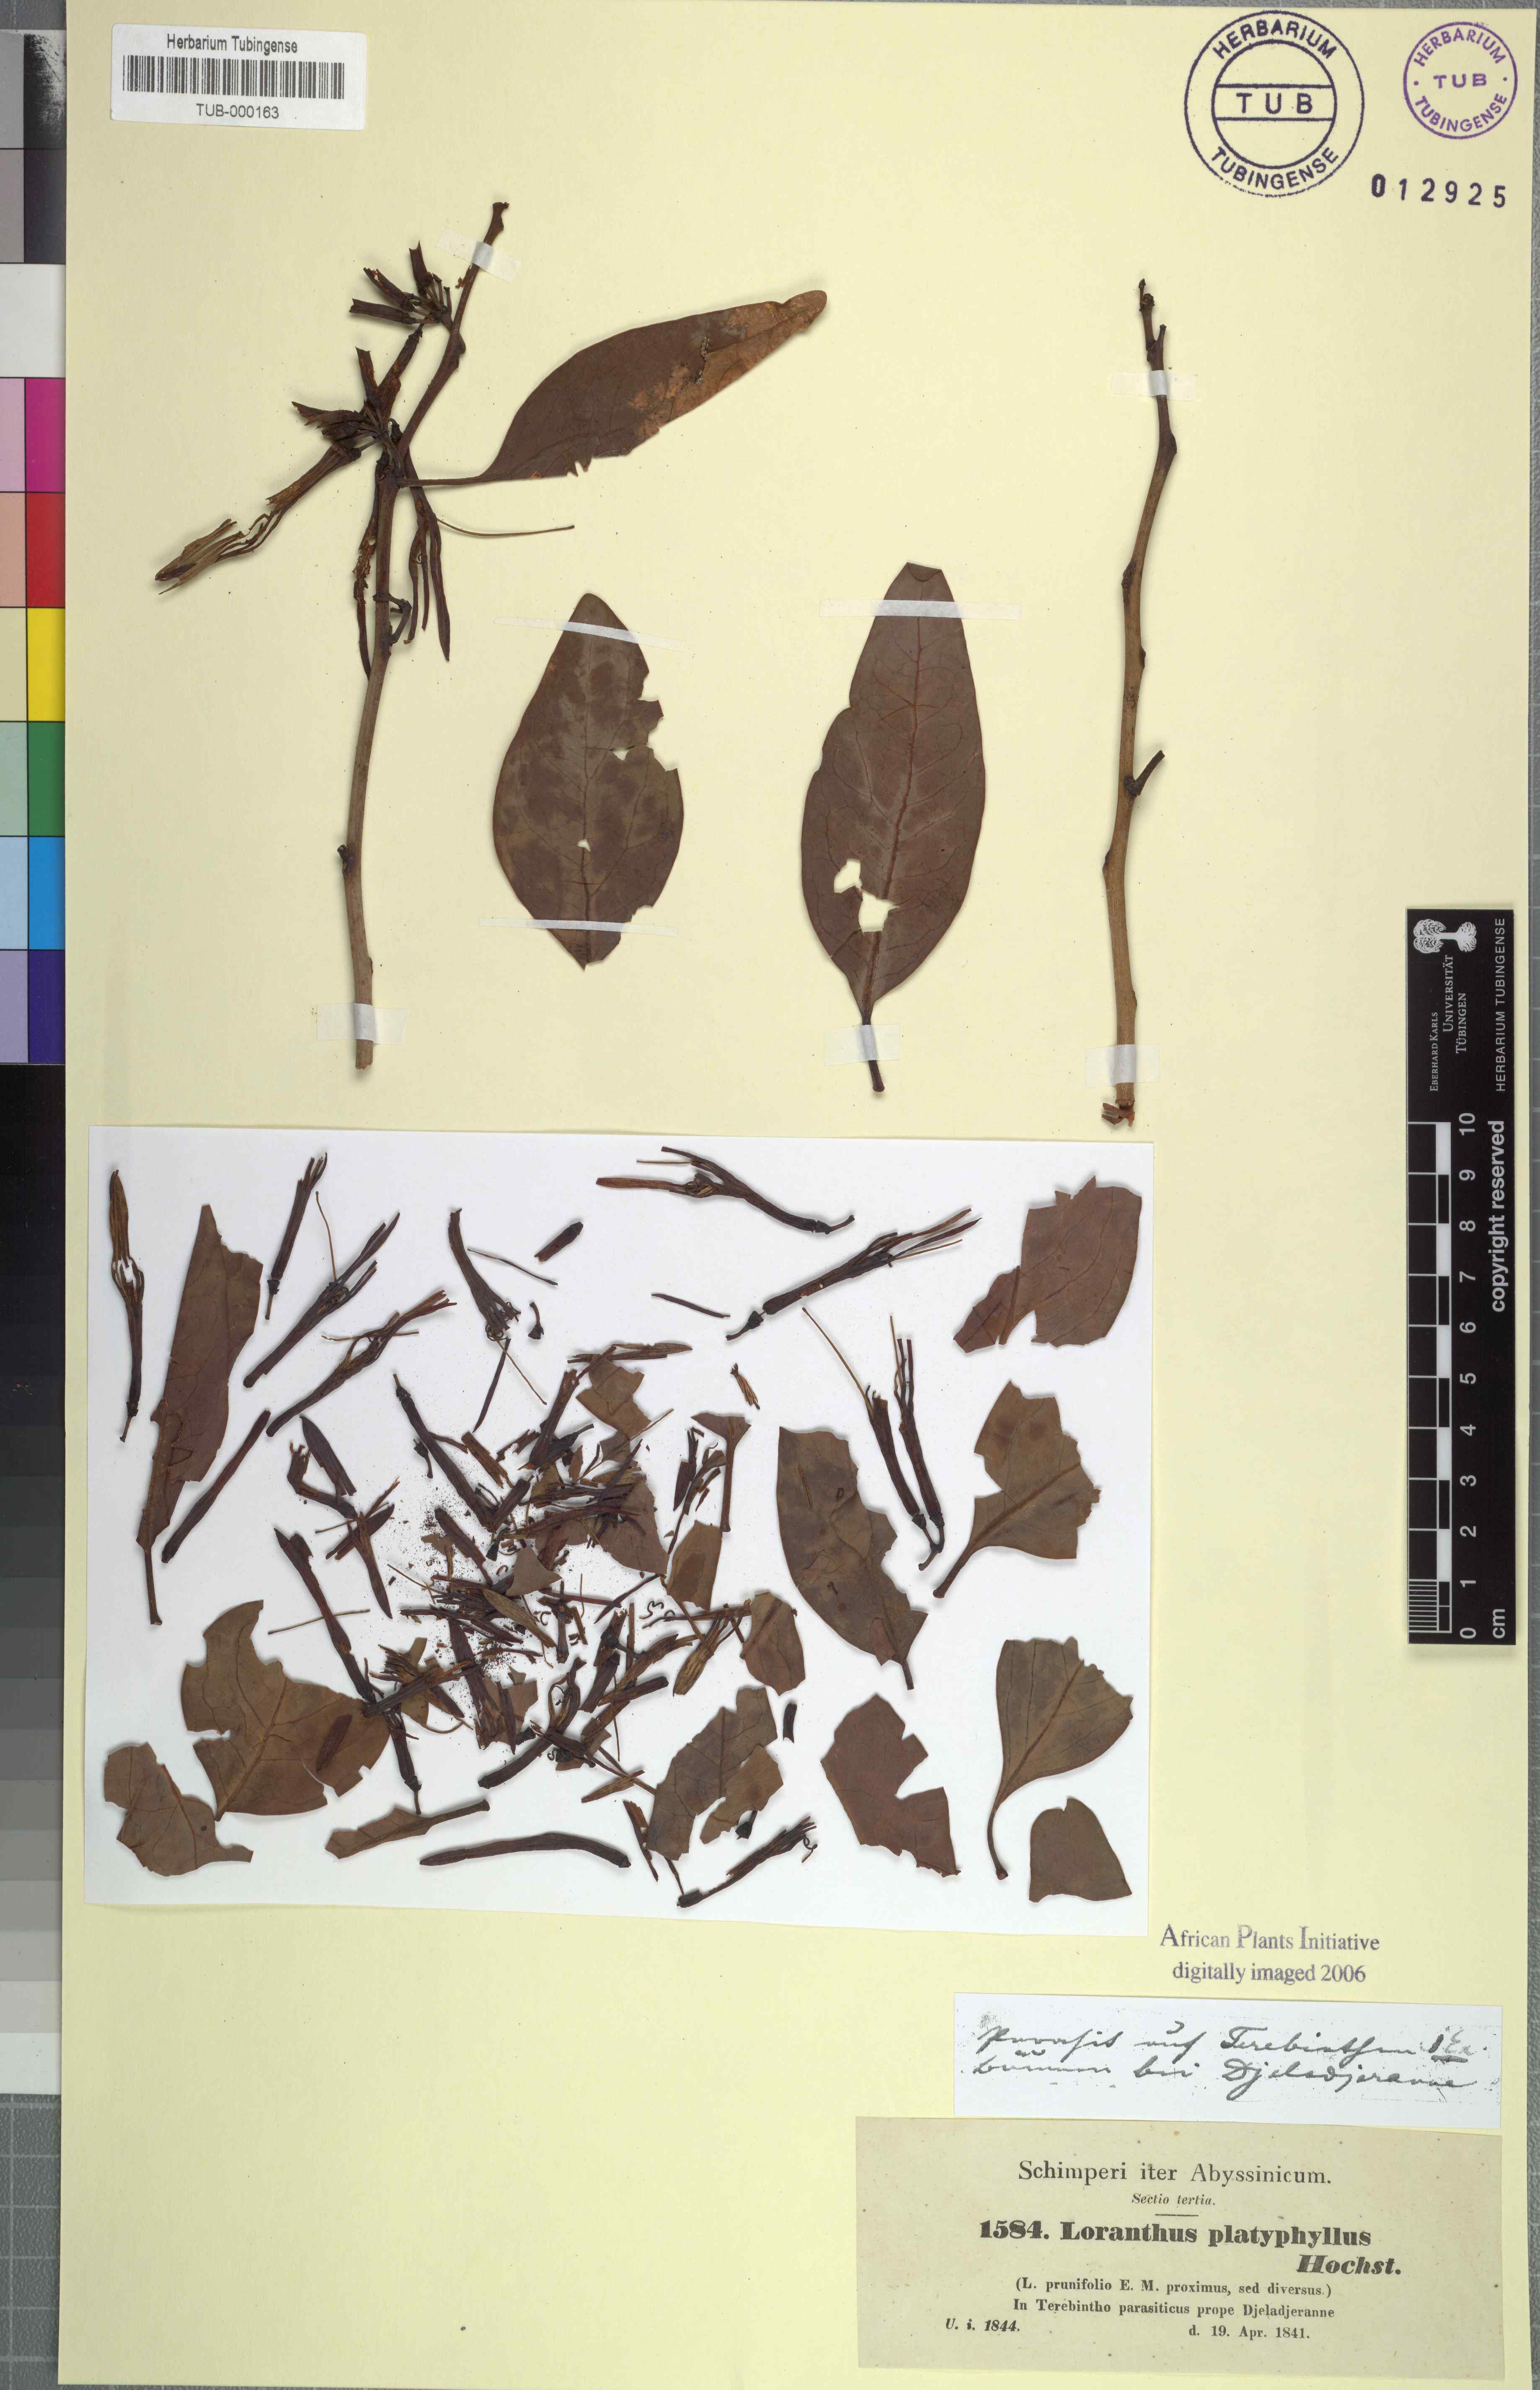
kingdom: Plantae
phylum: Tracheophyta
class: Magnoliopsida
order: Santalales
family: Loranthaceae
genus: Agelanthus
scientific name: Agelanthus platyphyllus
